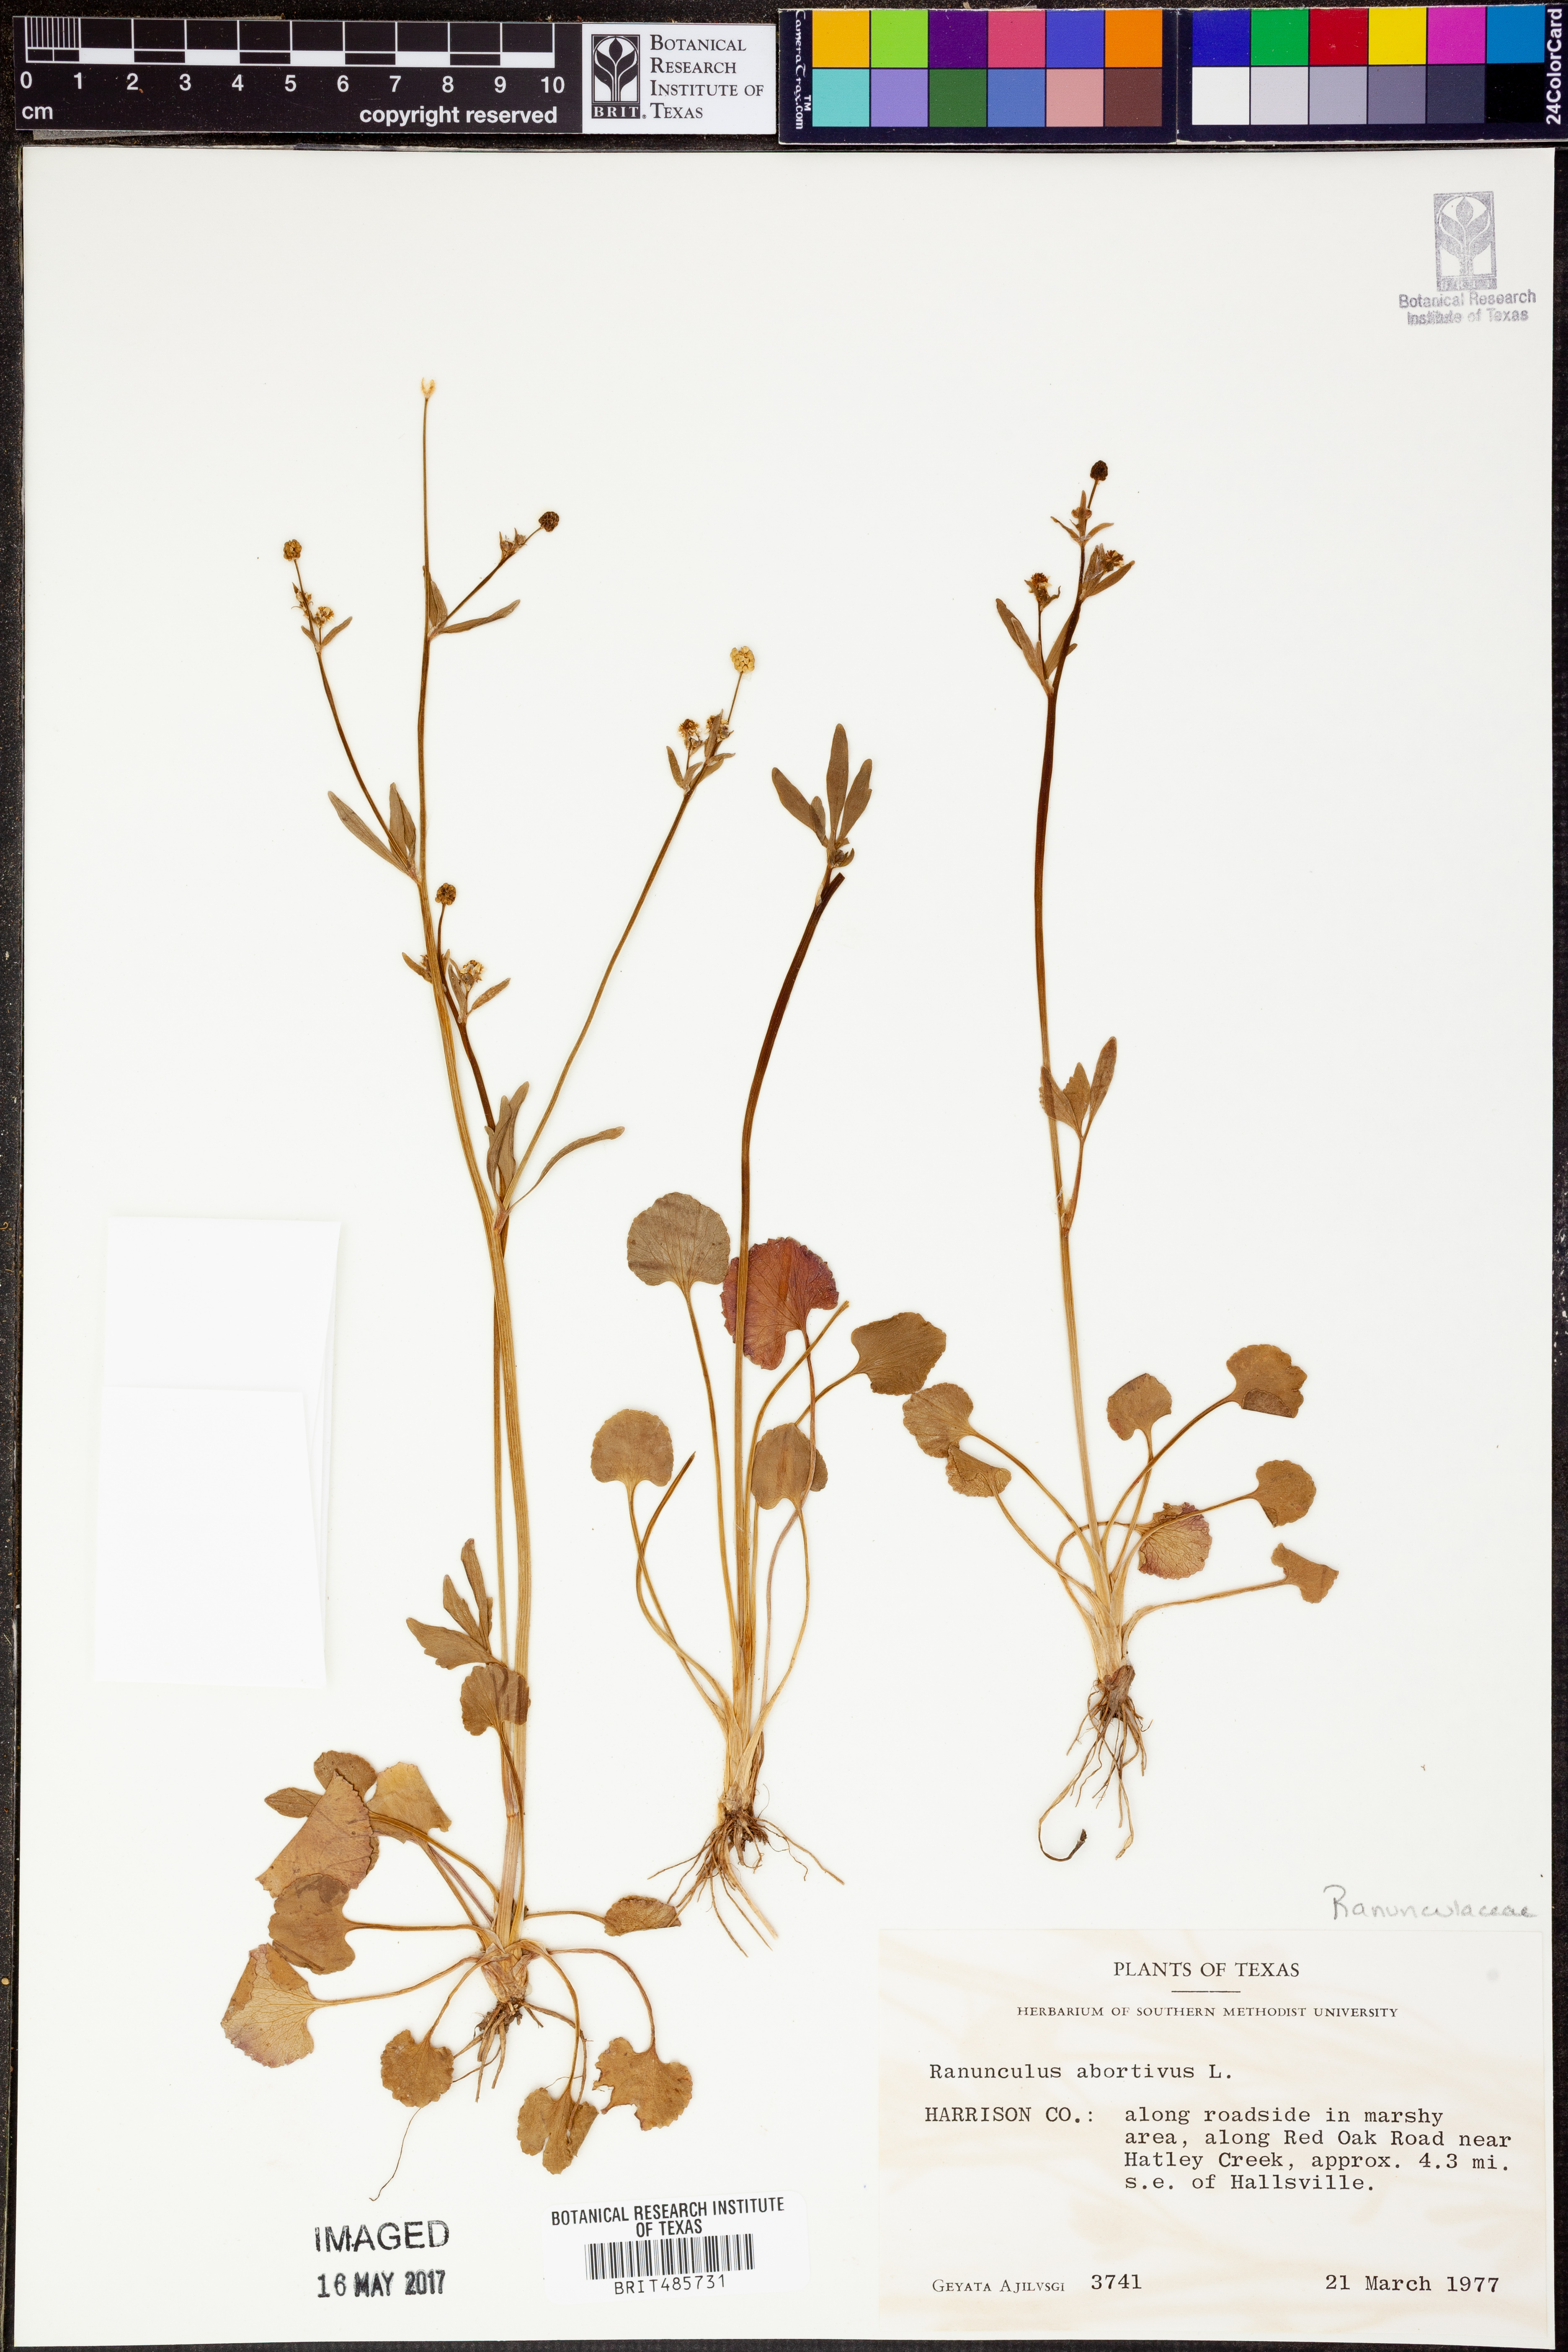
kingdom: Plantae
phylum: Tracheophyta
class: Magnoliopsida
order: Ranunculales
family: Ranunculaceae
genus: Ranunculus
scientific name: Ranunculus abortivus
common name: Early wood buttercup
